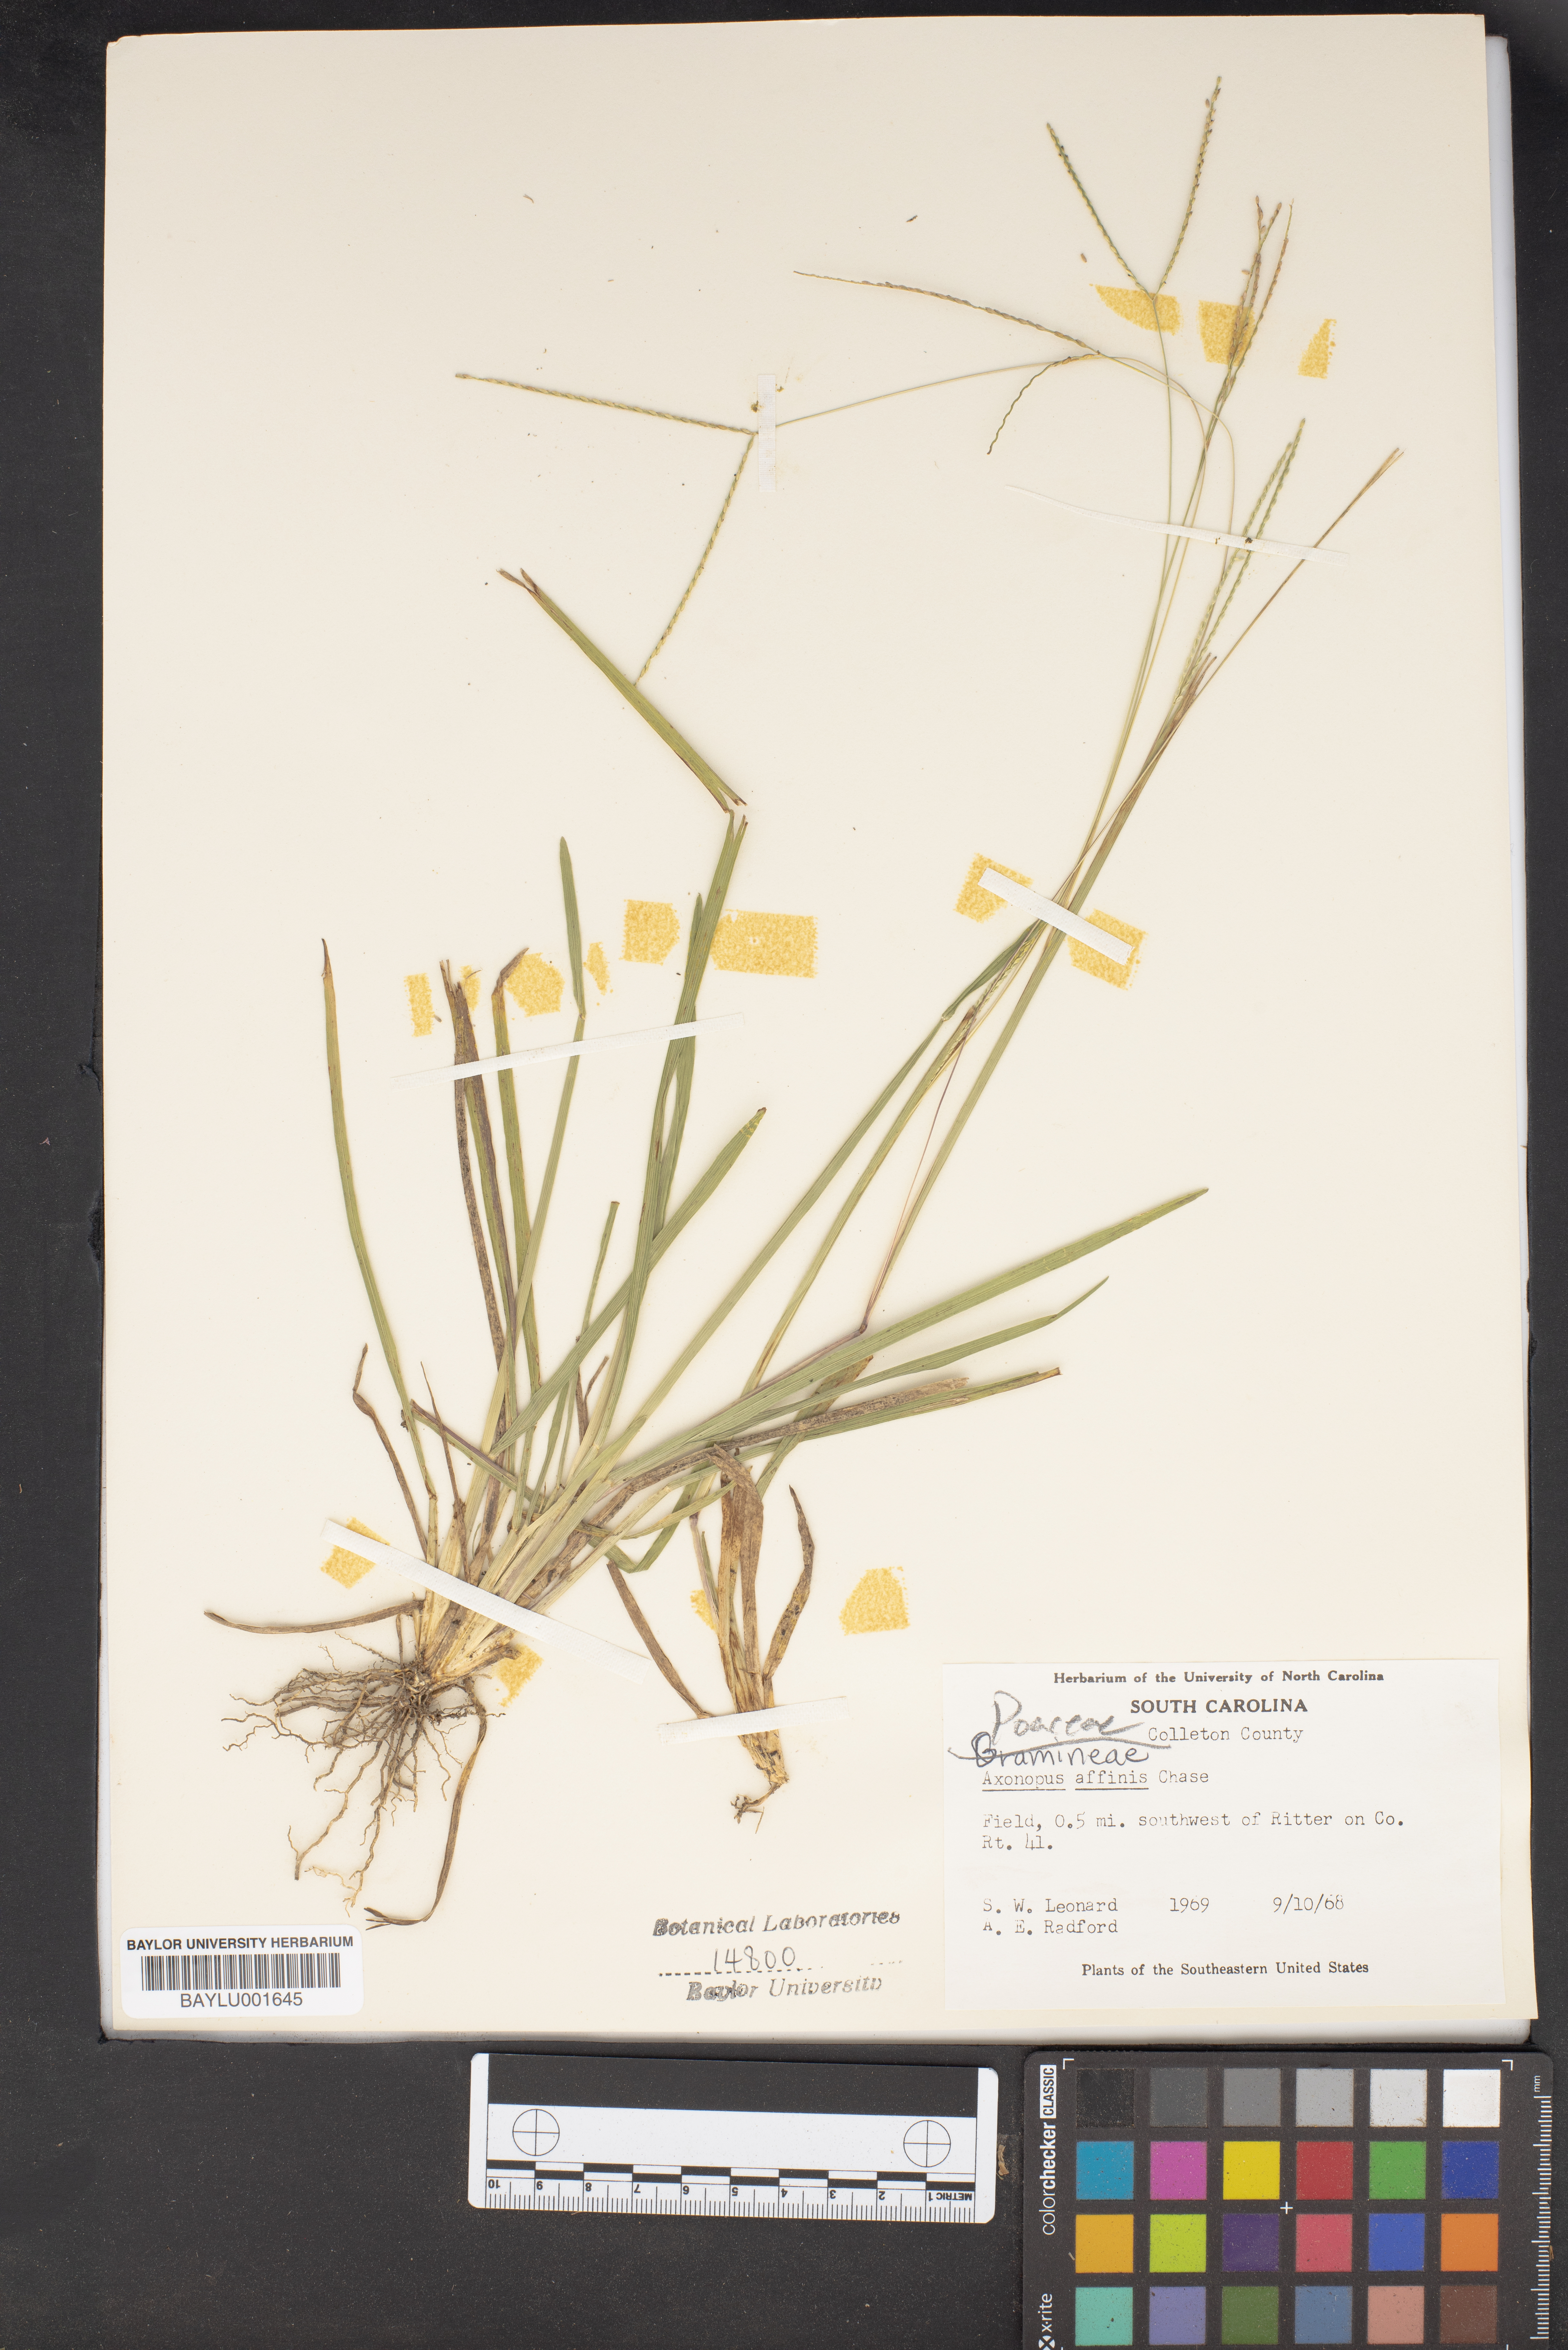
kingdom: Plantae
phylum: Tracheophyta
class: Liliopsida
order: Poales
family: Poaceae
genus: Axonopus
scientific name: Axonopus fissifolius
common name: Common carpetgrass
